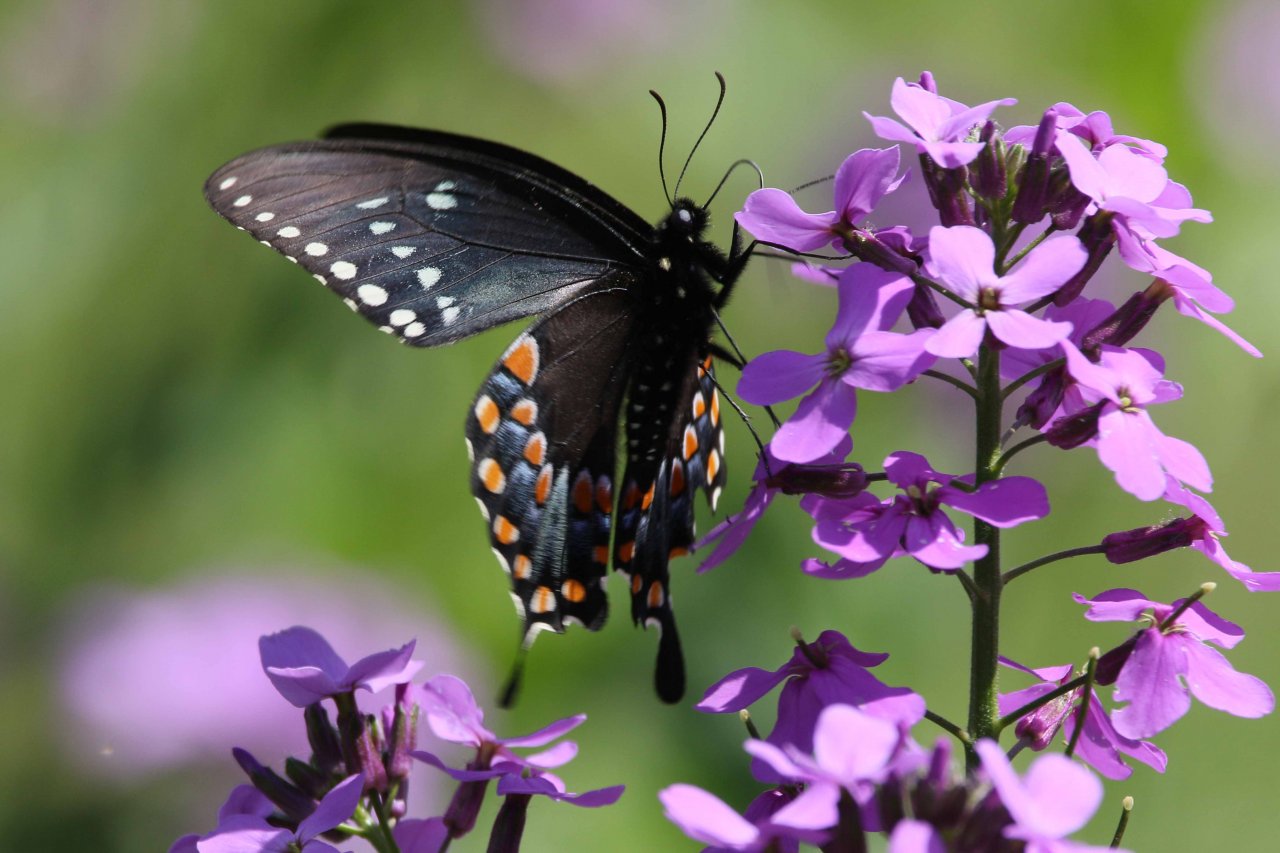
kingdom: Animalia
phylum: Arthropoda
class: Insecta
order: Lepidoptera
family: Papilionidae
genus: Pterourus
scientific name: Pterourus troilus
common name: Spicebush Swallowtail
